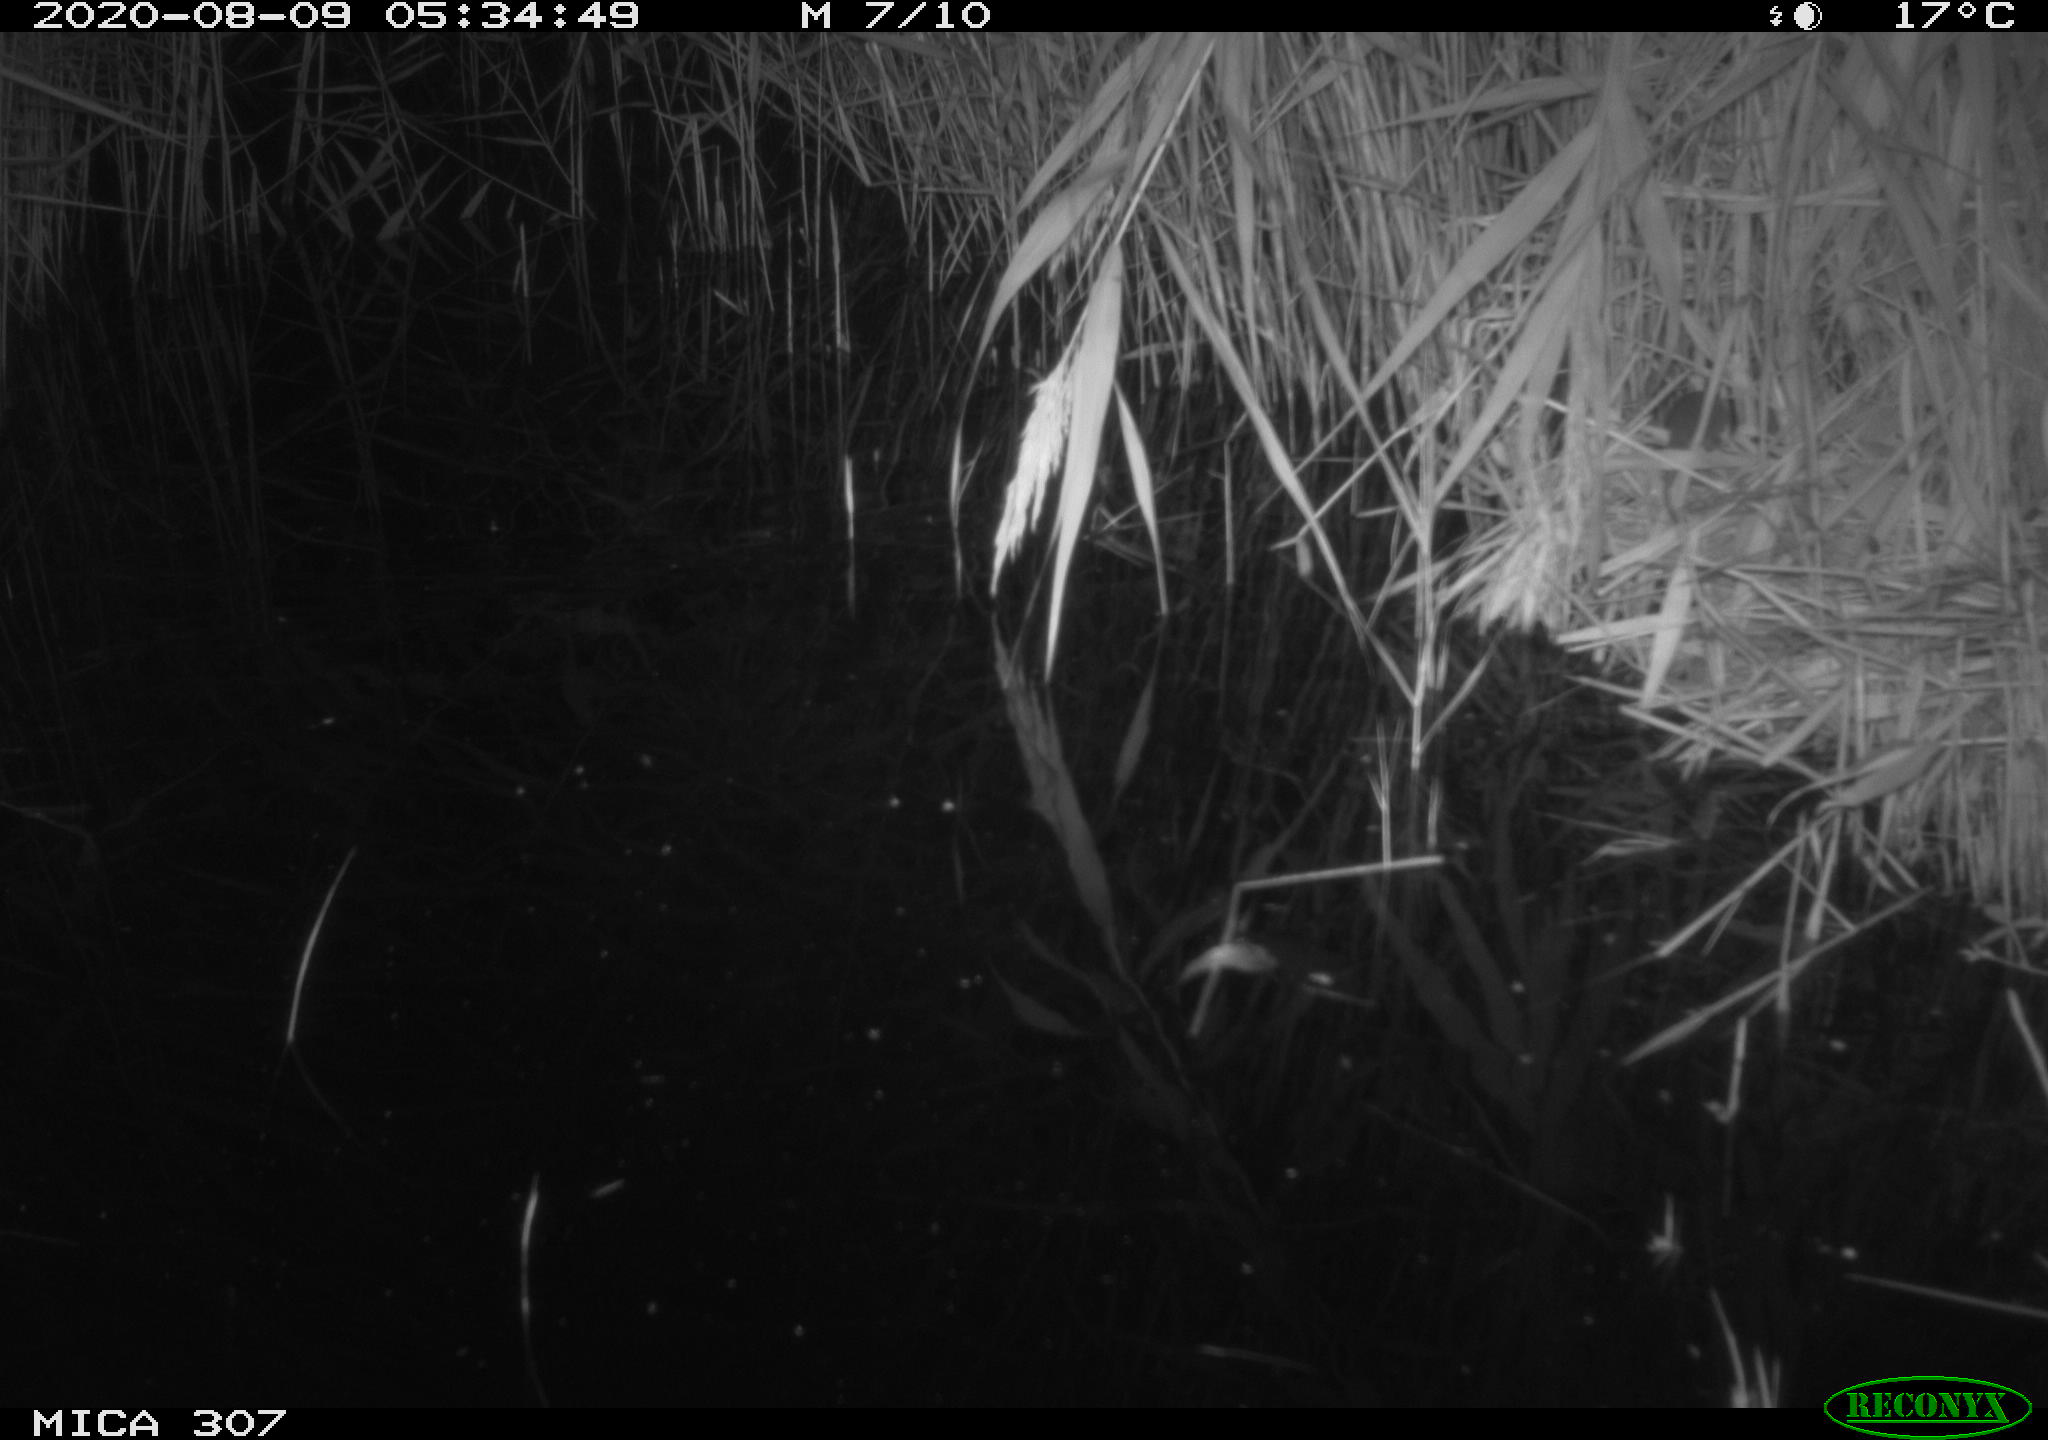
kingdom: Animalia
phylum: Chordata
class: Mammalia
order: Rodentia
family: Muridae
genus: Rattus
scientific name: Rattus norvegicus
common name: Brown rat
